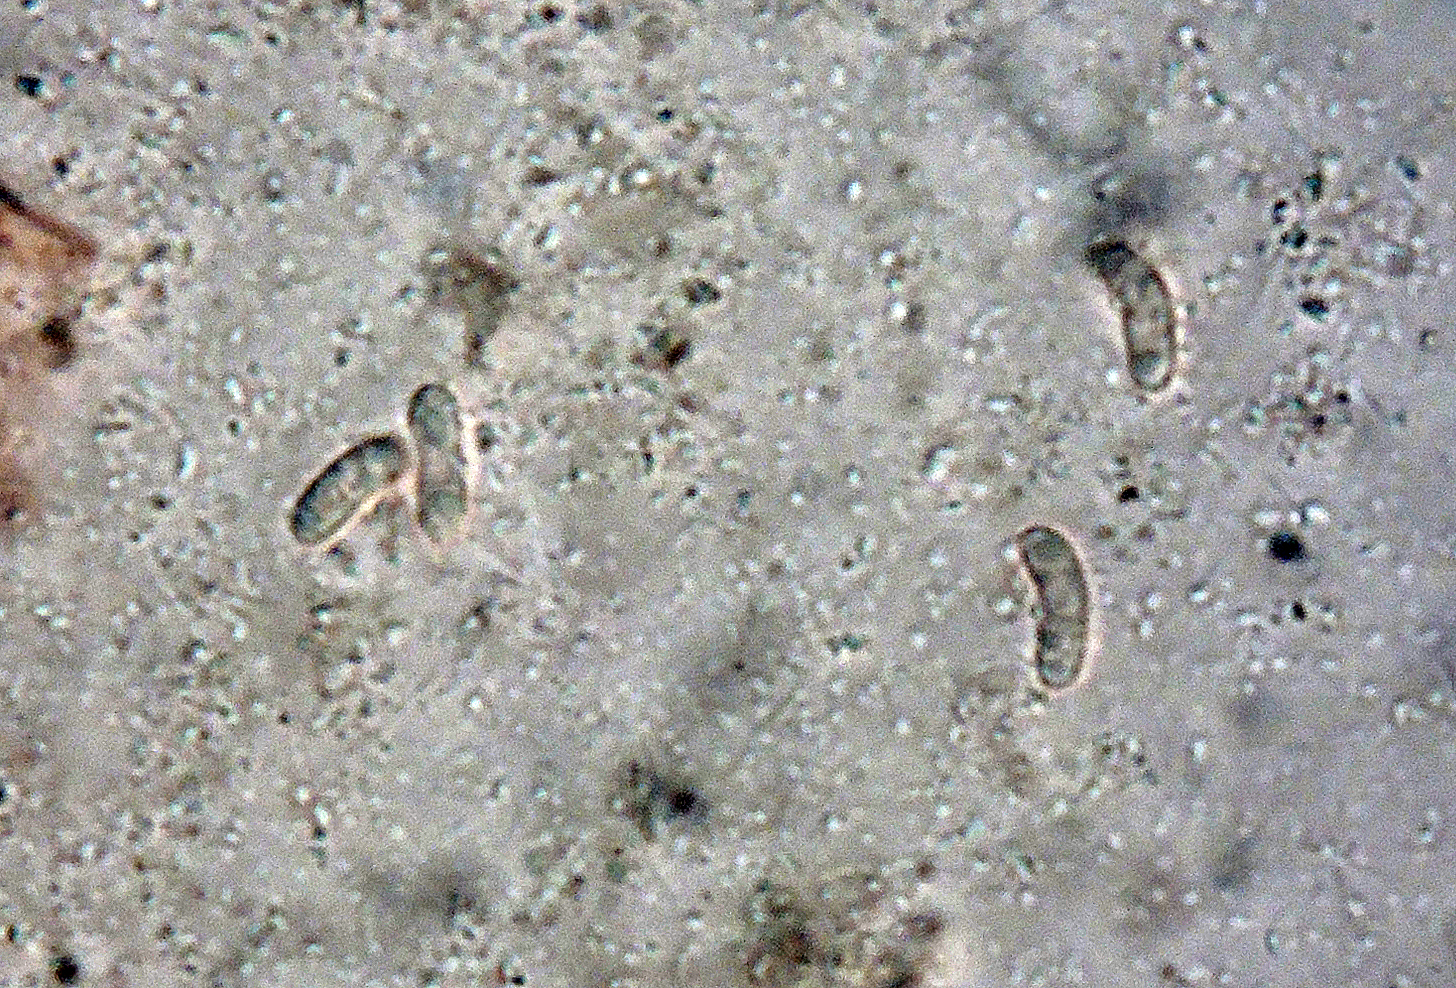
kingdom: Fungi
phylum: Basidiomycota
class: Agaricomycetes
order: Polyporales
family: Irpicaceae
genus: Ceriporia
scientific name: Ceriporia purpurea
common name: purpur-voksporesvamp
